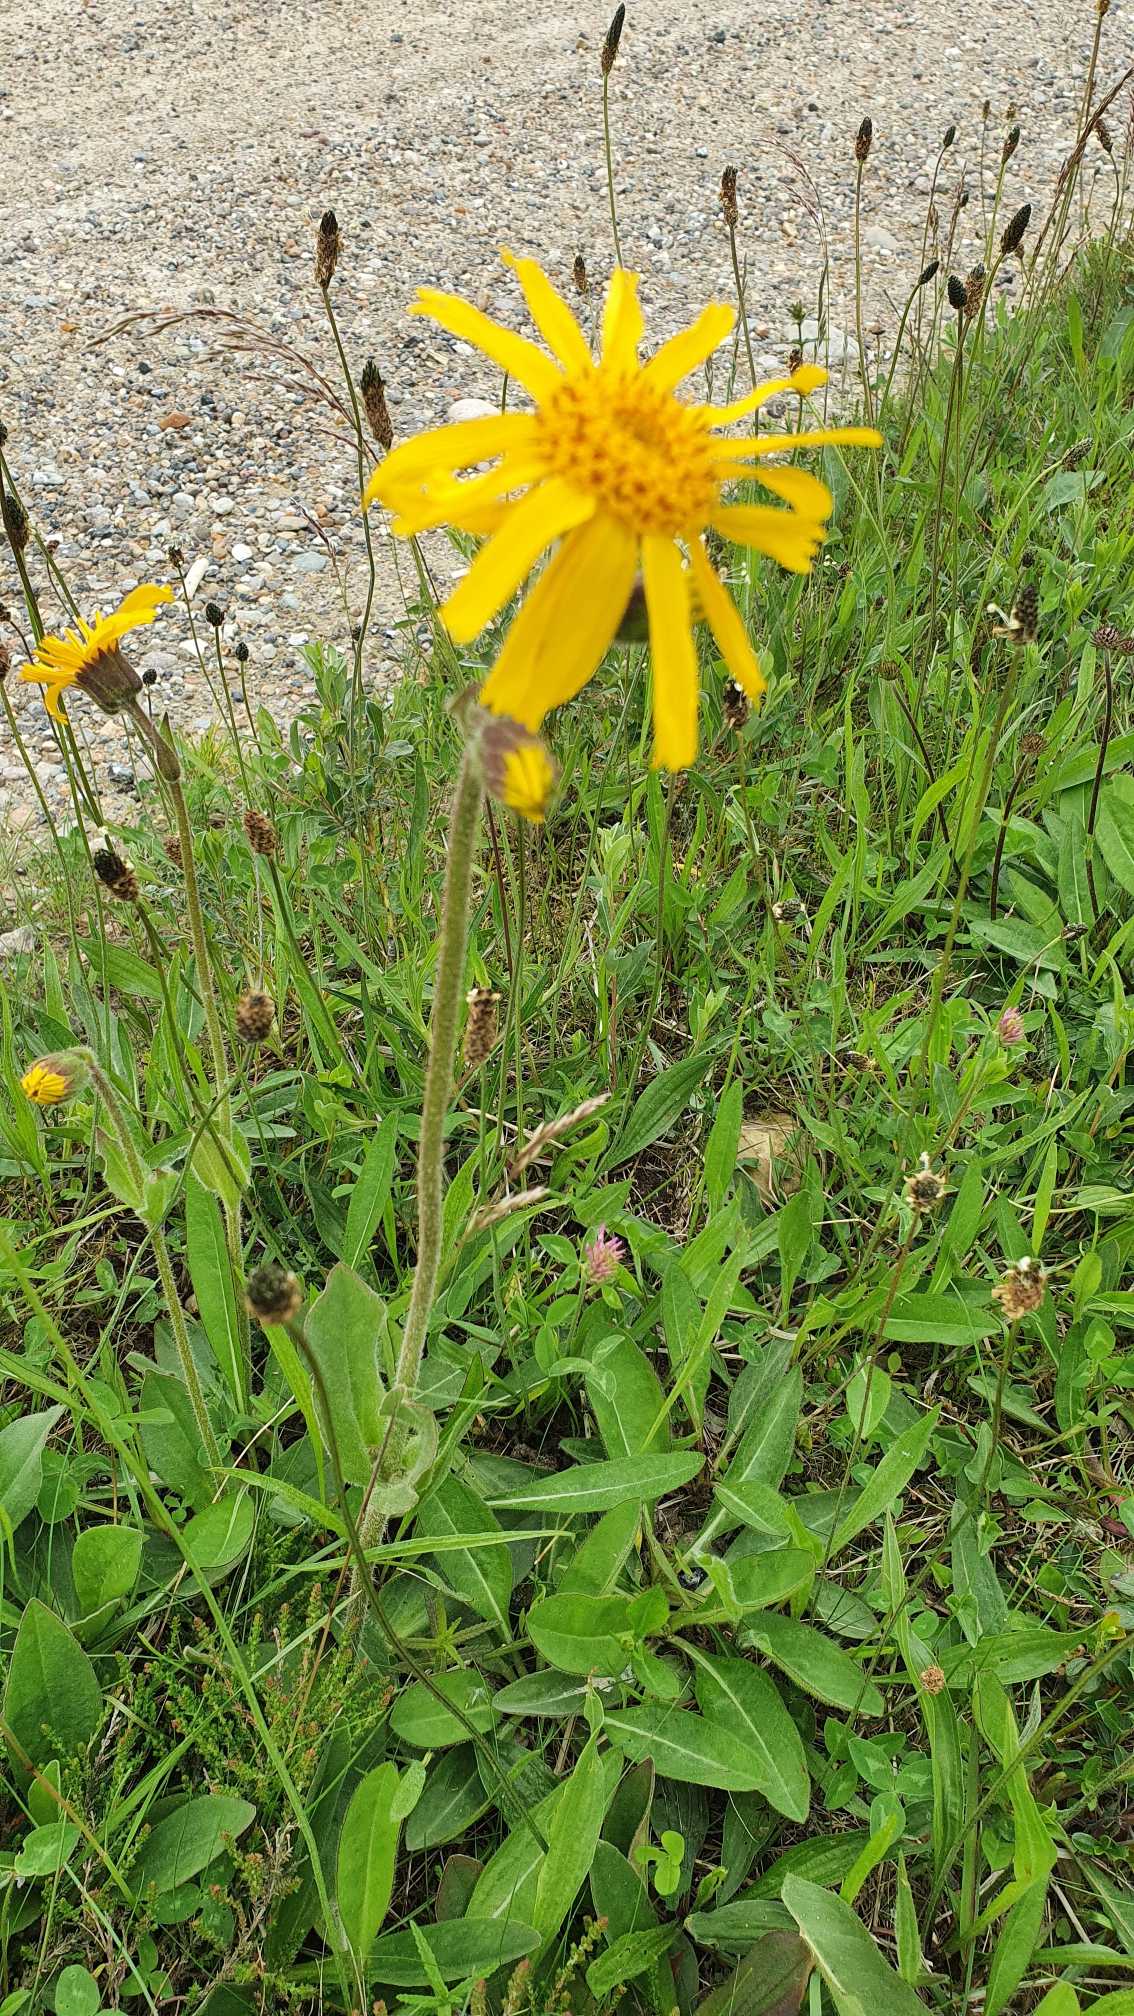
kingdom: Plantae
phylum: Tracheophyta
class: Magnoliopsida
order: Asterales
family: Asteraceae
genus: Arnica
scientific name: Arnica montana
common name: Guldblomme
